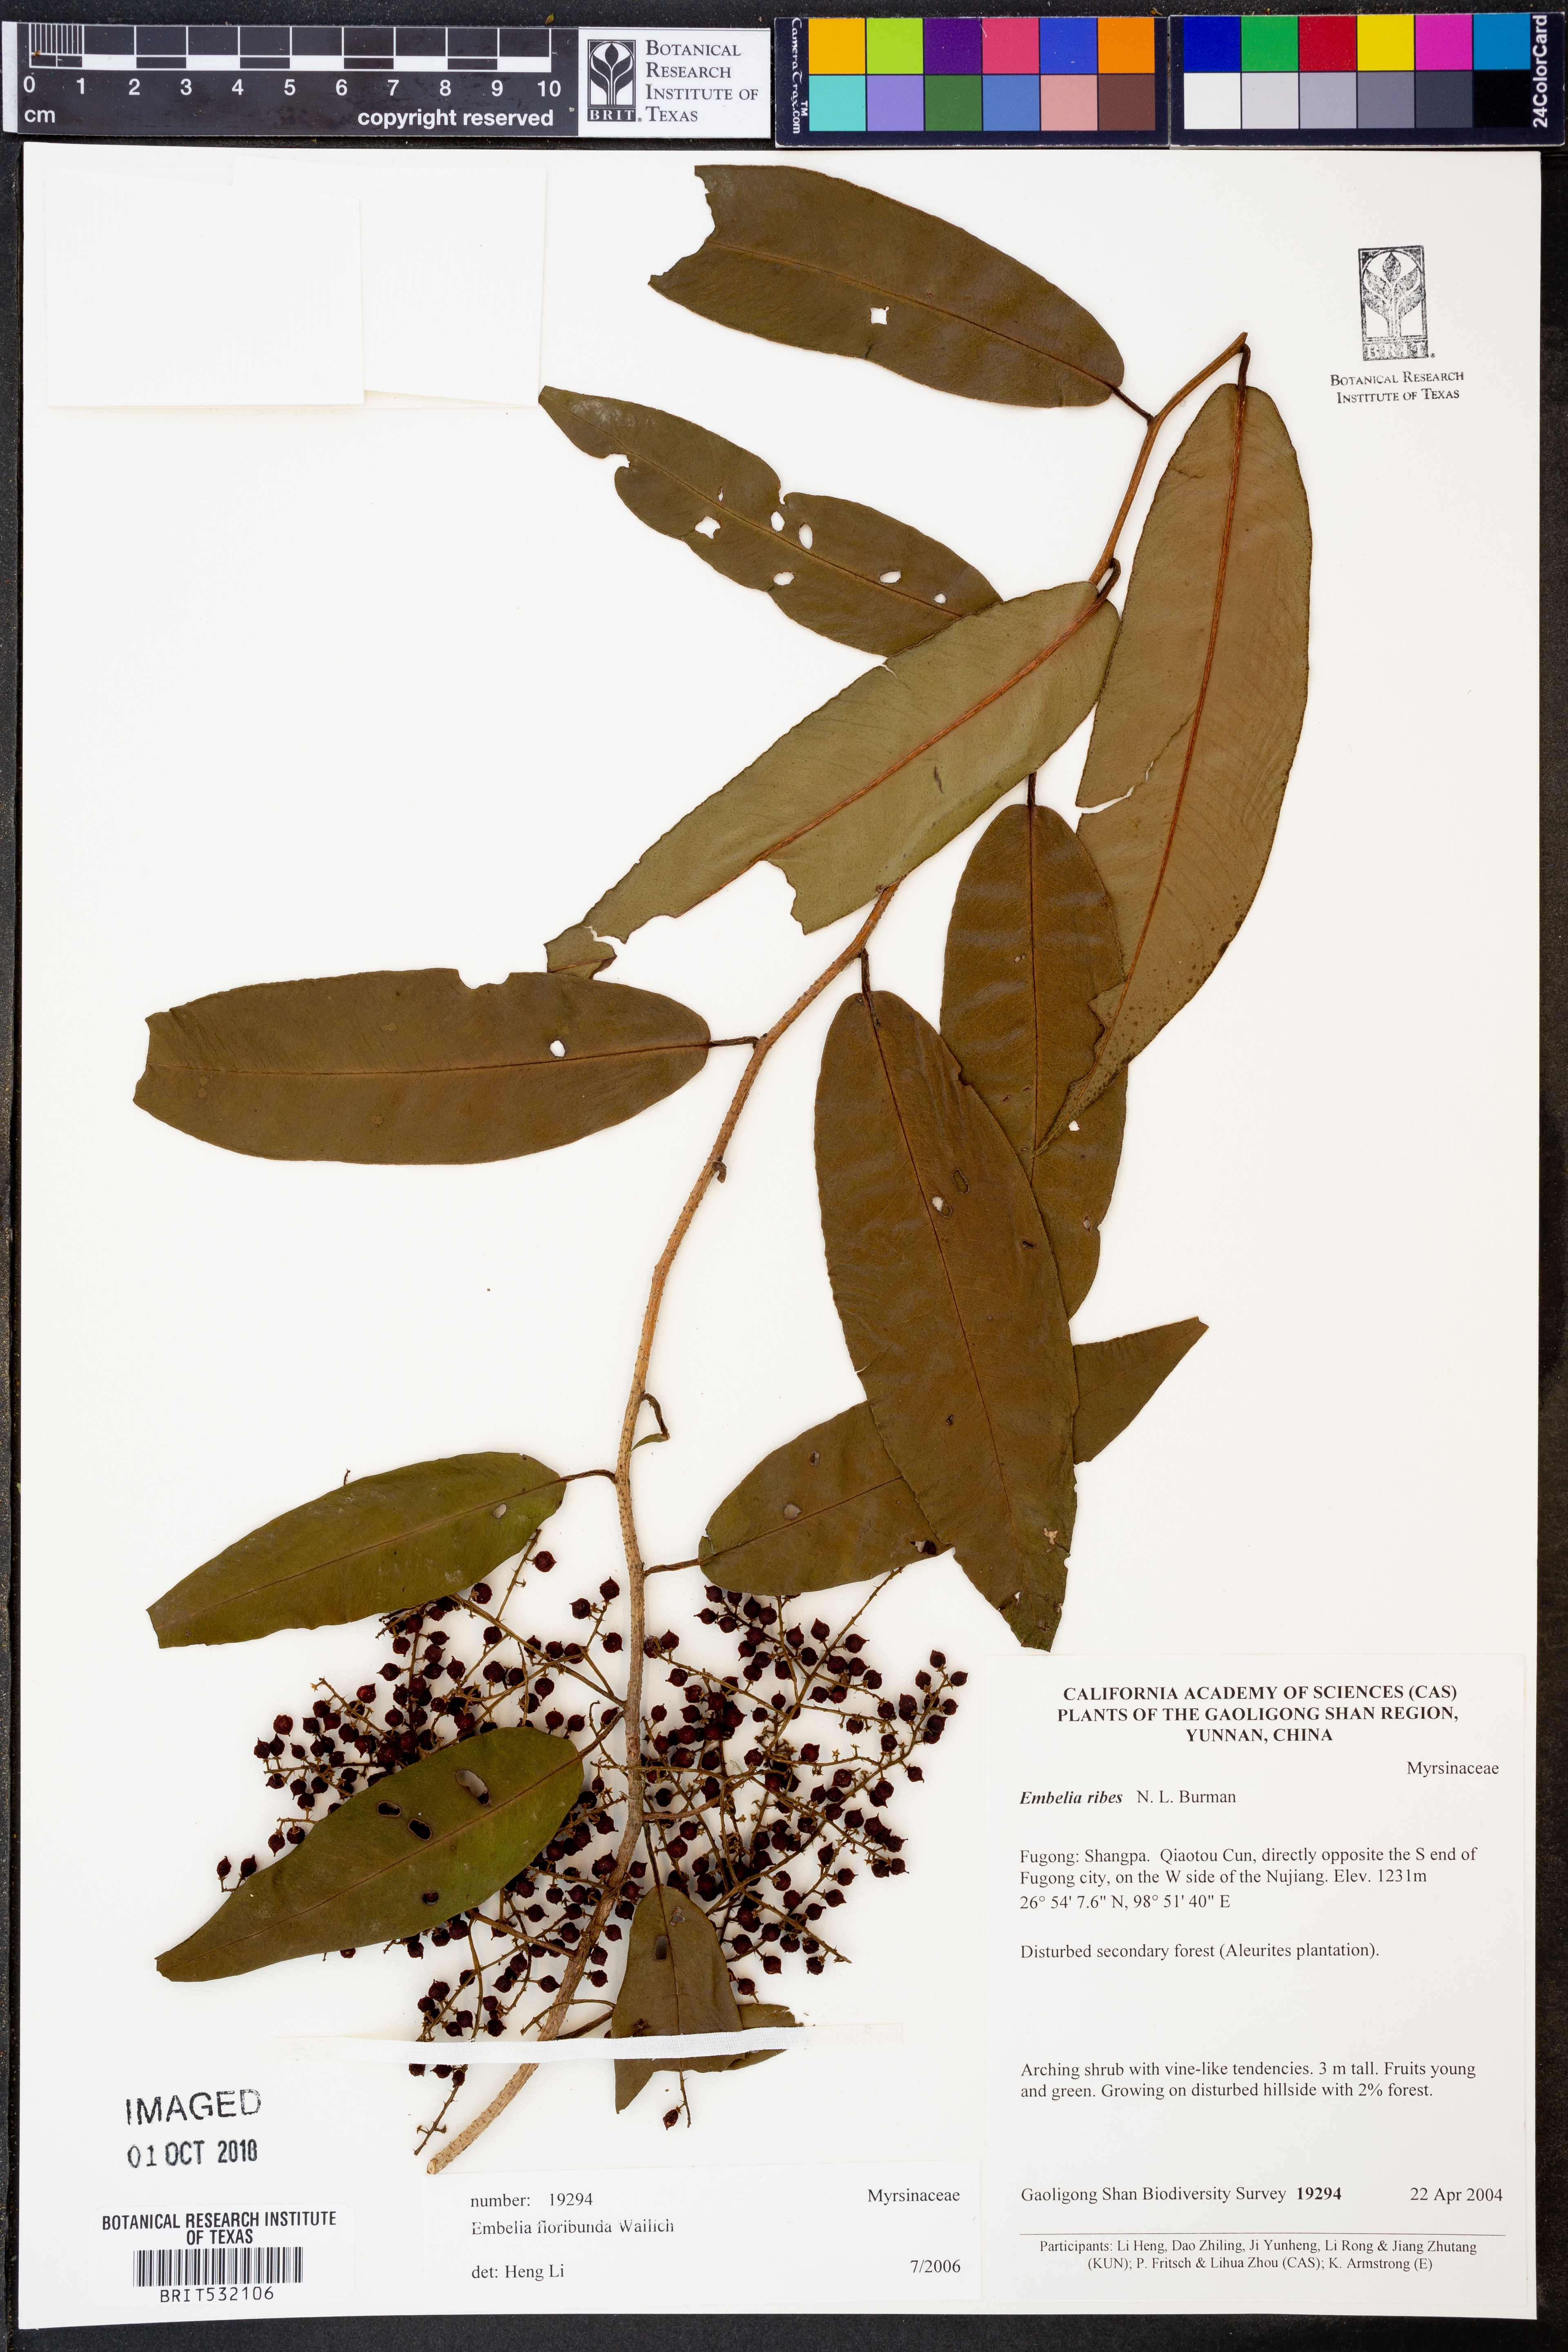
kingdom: Plantae
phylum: Tracheophyta
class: Magnoliopsida
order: Ericales
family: Primulaceae
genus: Embelia
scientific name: Embelia floribunda
